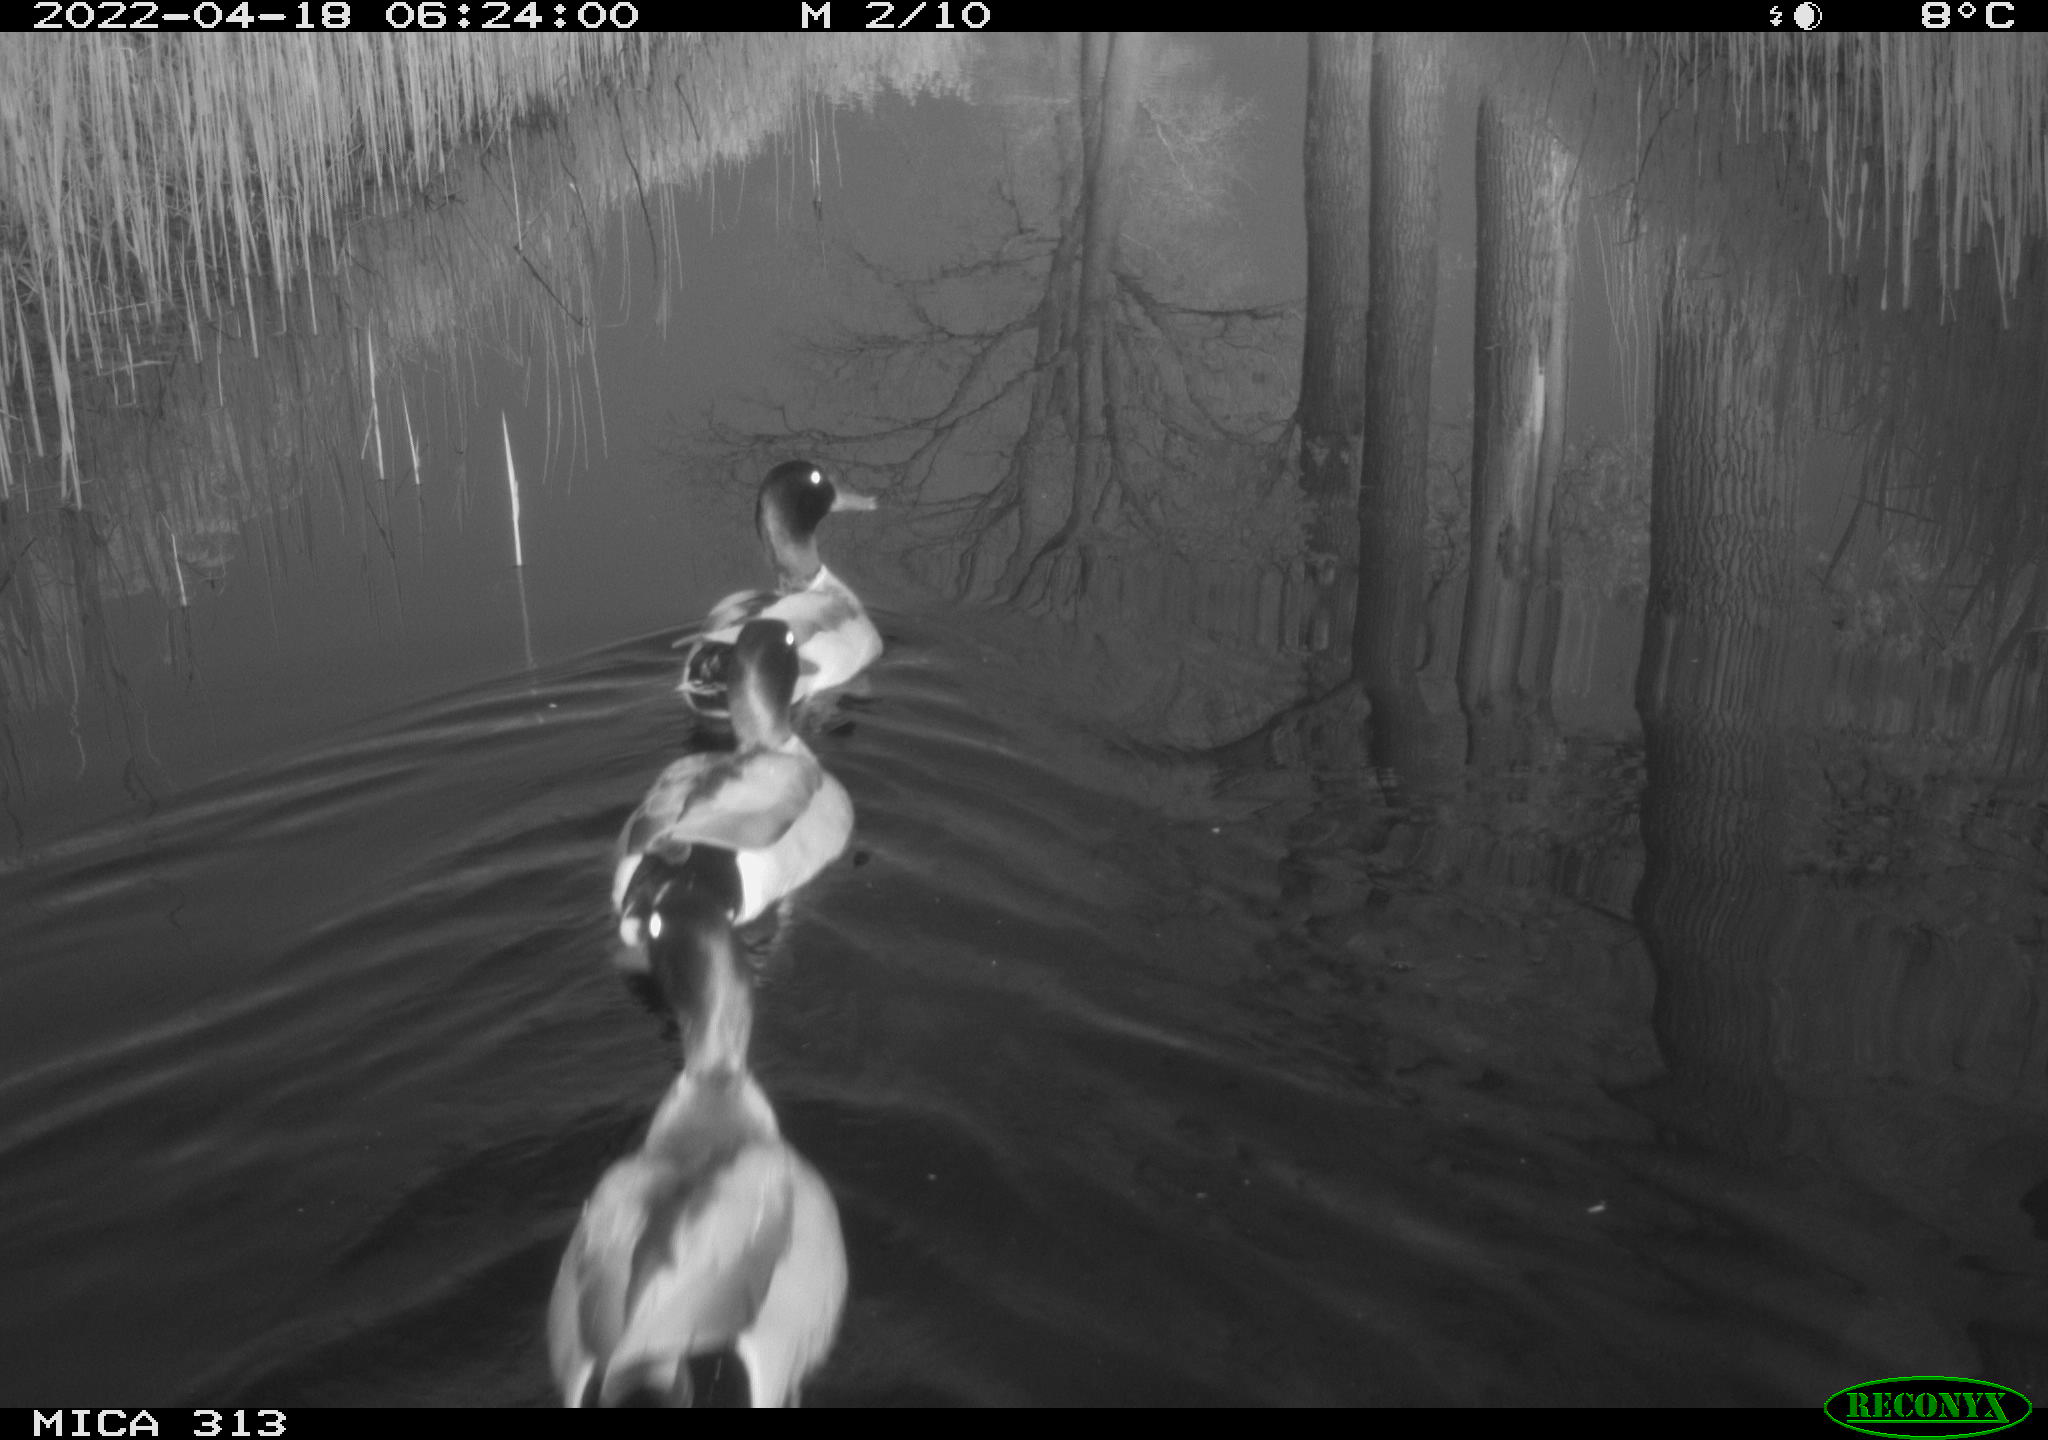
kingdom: Animalia
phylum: Chordata
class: Aves
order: Anseriformes
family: Anatidae
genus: Anas
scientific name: Anas platyrhynchos
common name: Mallard
